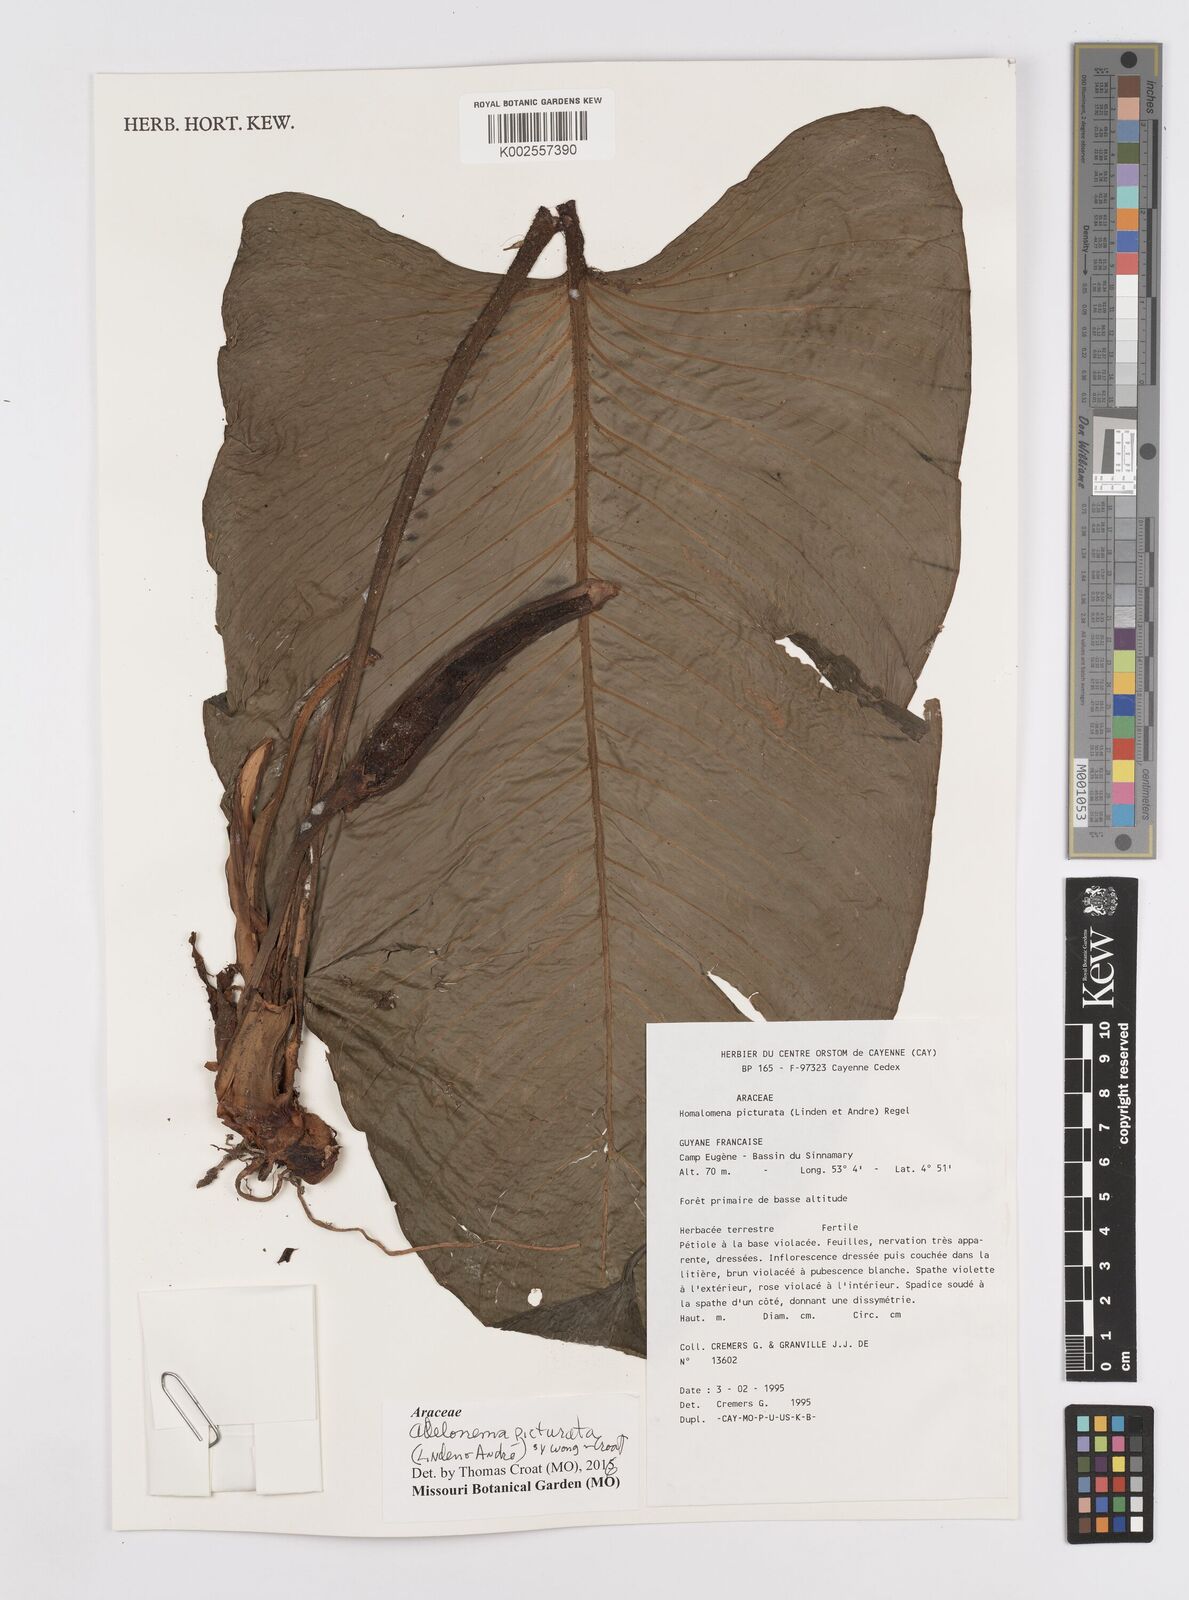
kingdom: Plantae
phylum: Tracheophyta
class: Liliopsida
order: Alismatales
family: Araceae
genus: Adelonema
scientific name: Adelonema picturatum
